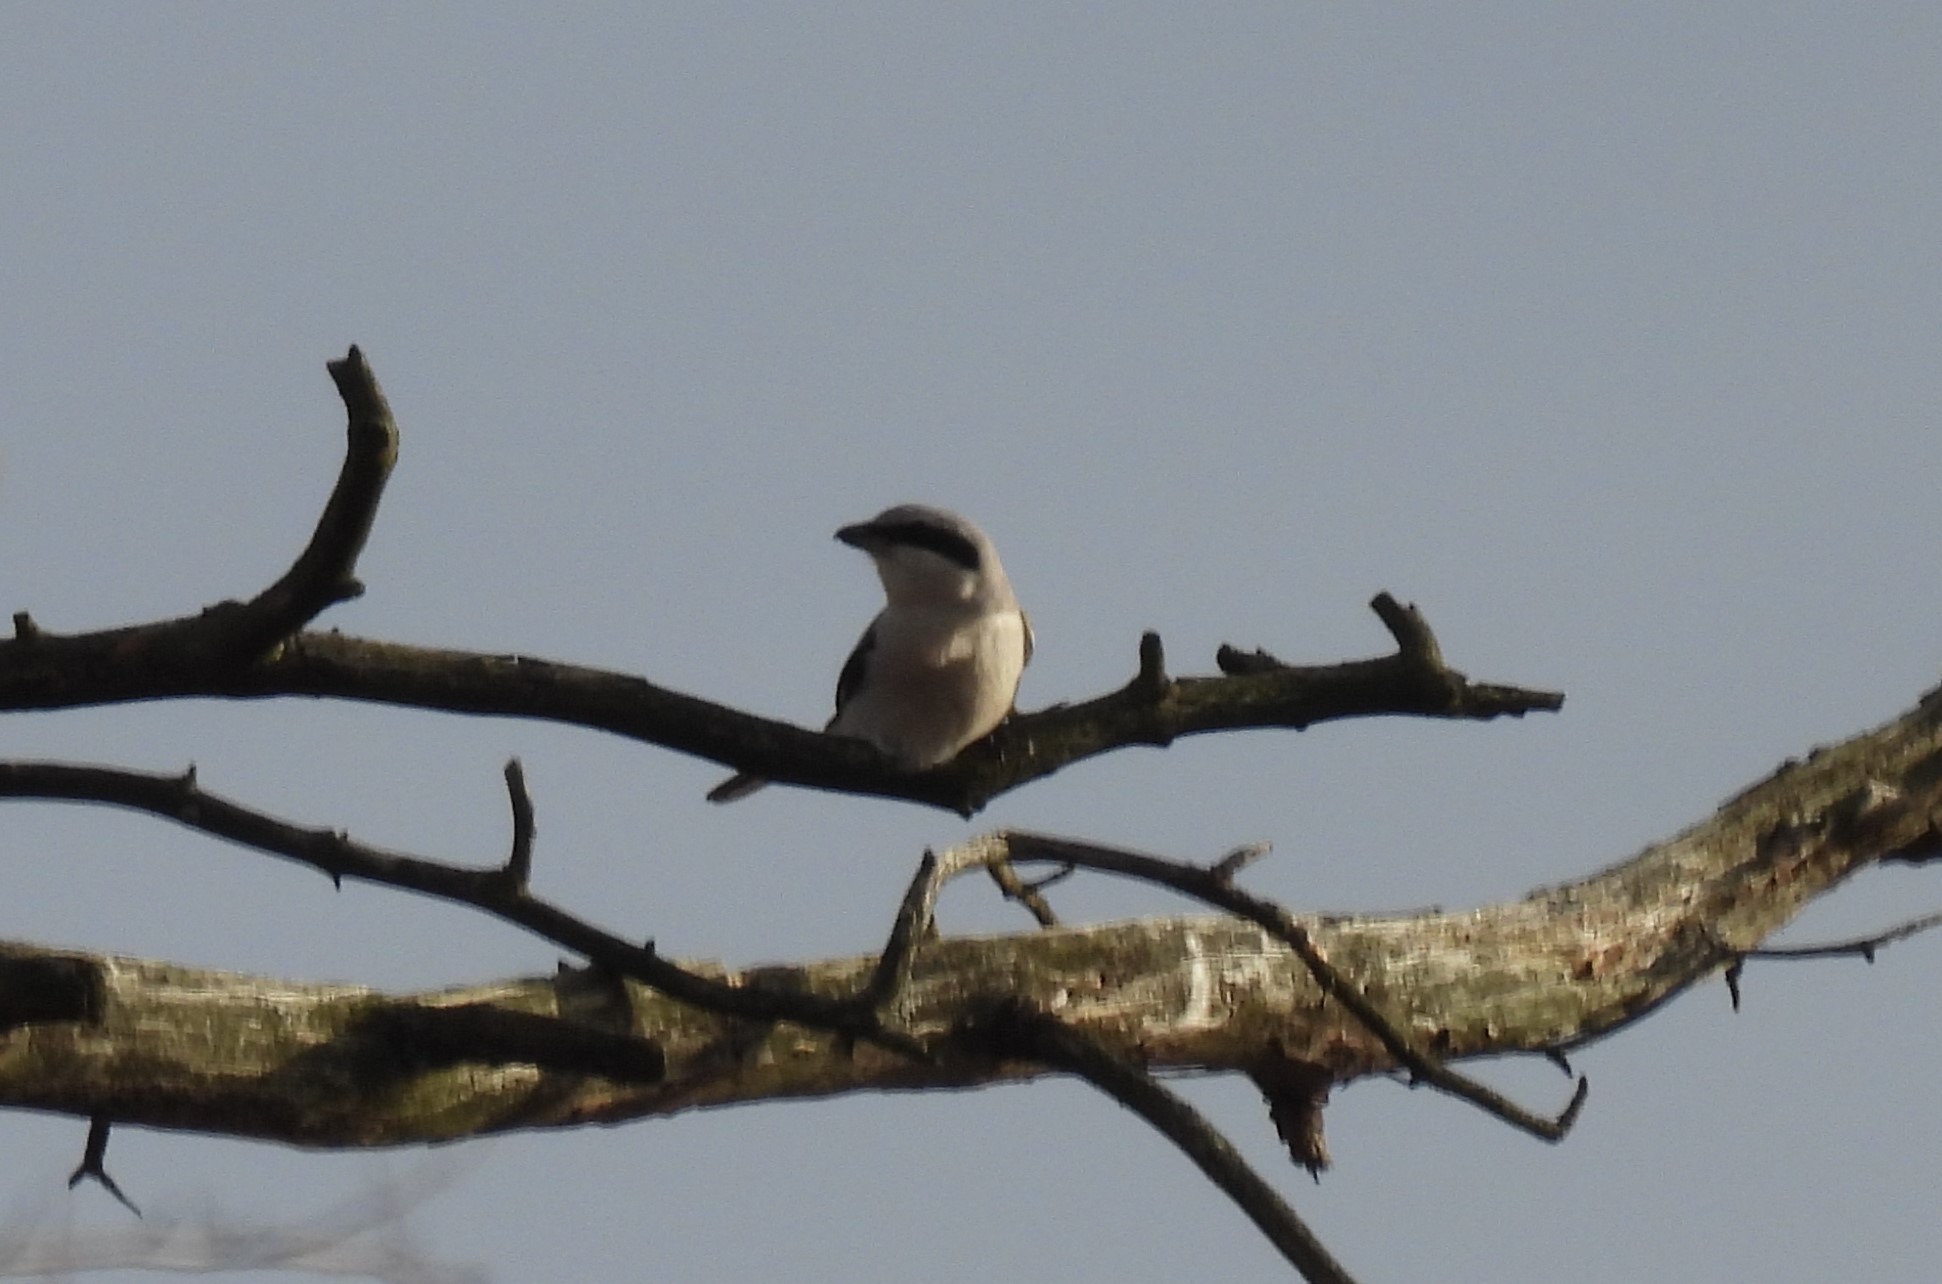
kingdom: Animalia
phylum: Chordata
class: Aves
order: Passeriformes
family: Laniidae
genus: Lanius
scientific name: Lanius excubitor
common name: Stor tornskade
